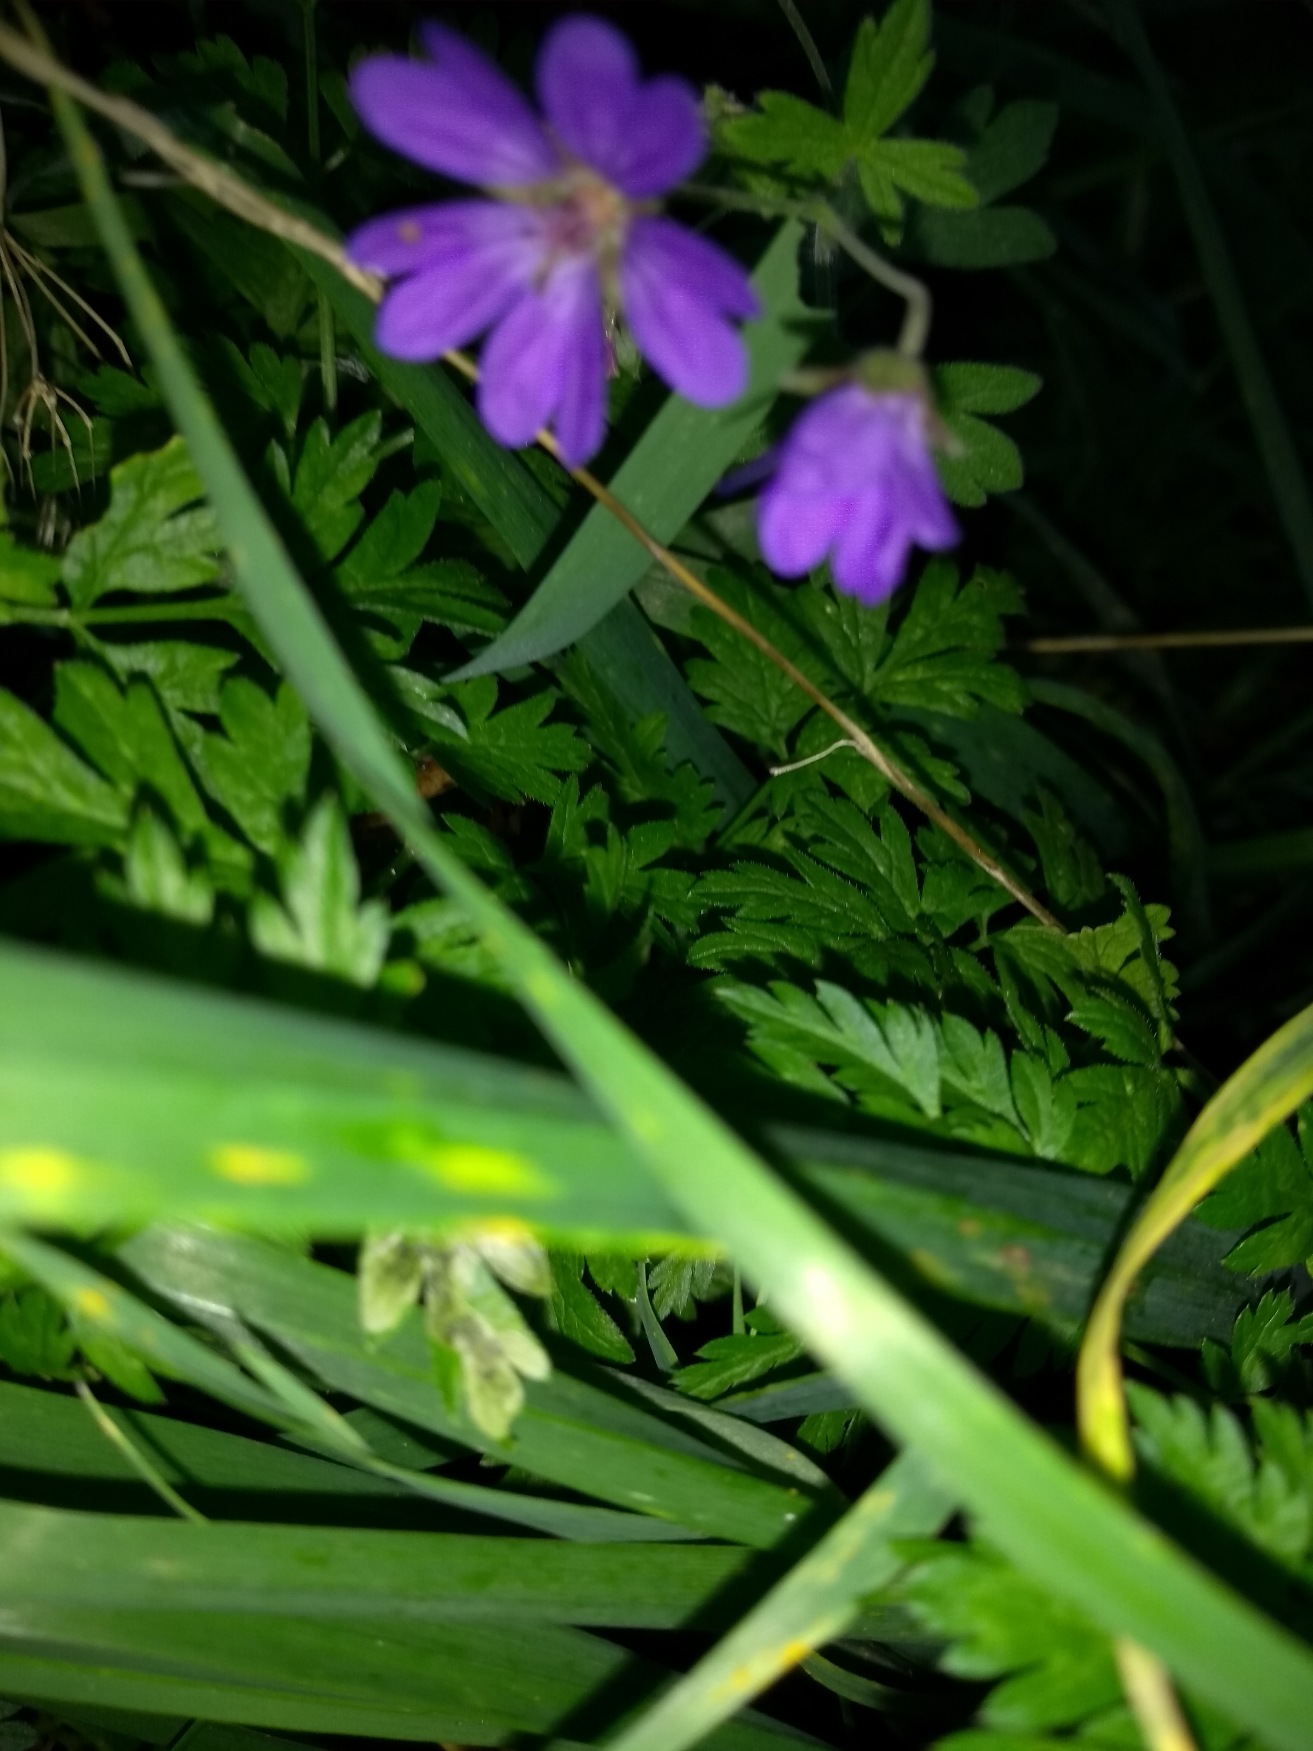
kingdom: Plantae
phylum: Tracheophyta
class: Magnoliopsida
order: Geraniales
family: Geraniaceae
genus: Geranium
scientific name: Geranium pyrenaicum
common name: Pyrenæisk storkenæb
